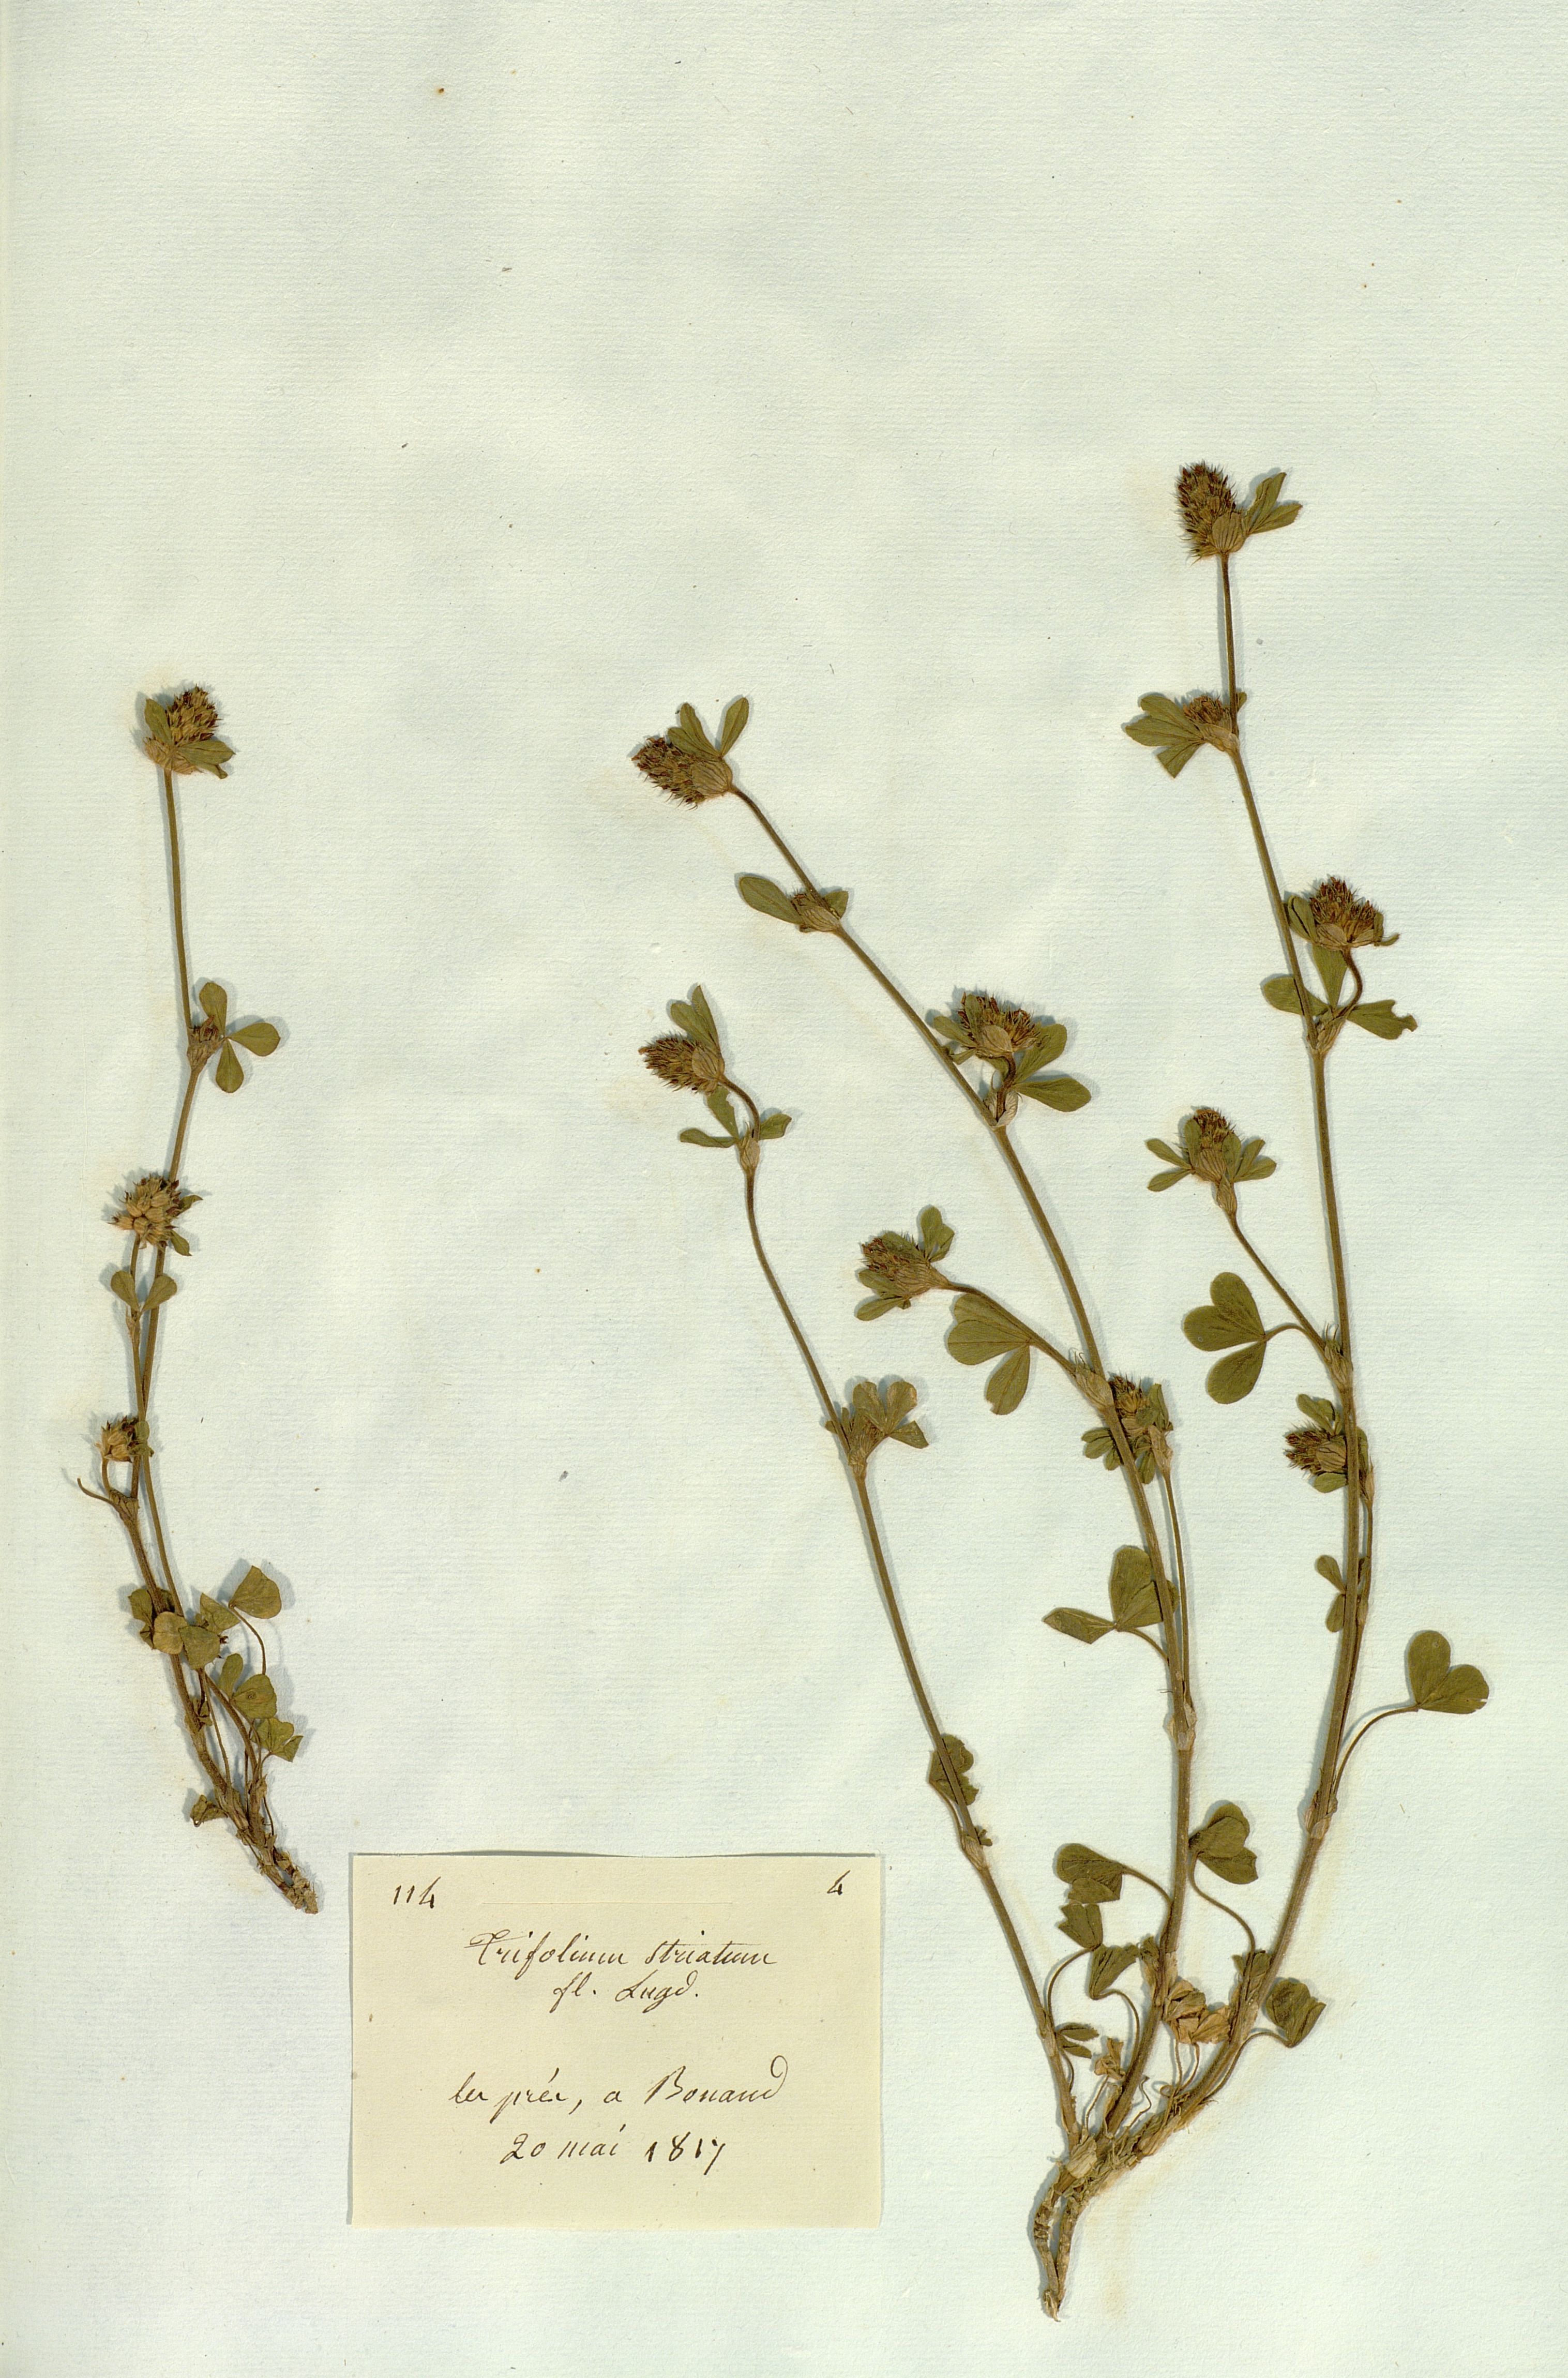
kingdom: Plantae
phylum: Tracheophyta
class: Magnoliopsida
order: Fabales
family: Fabaceae
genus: Trifolium
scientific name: Trifolium striatum
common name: Knotted clover
